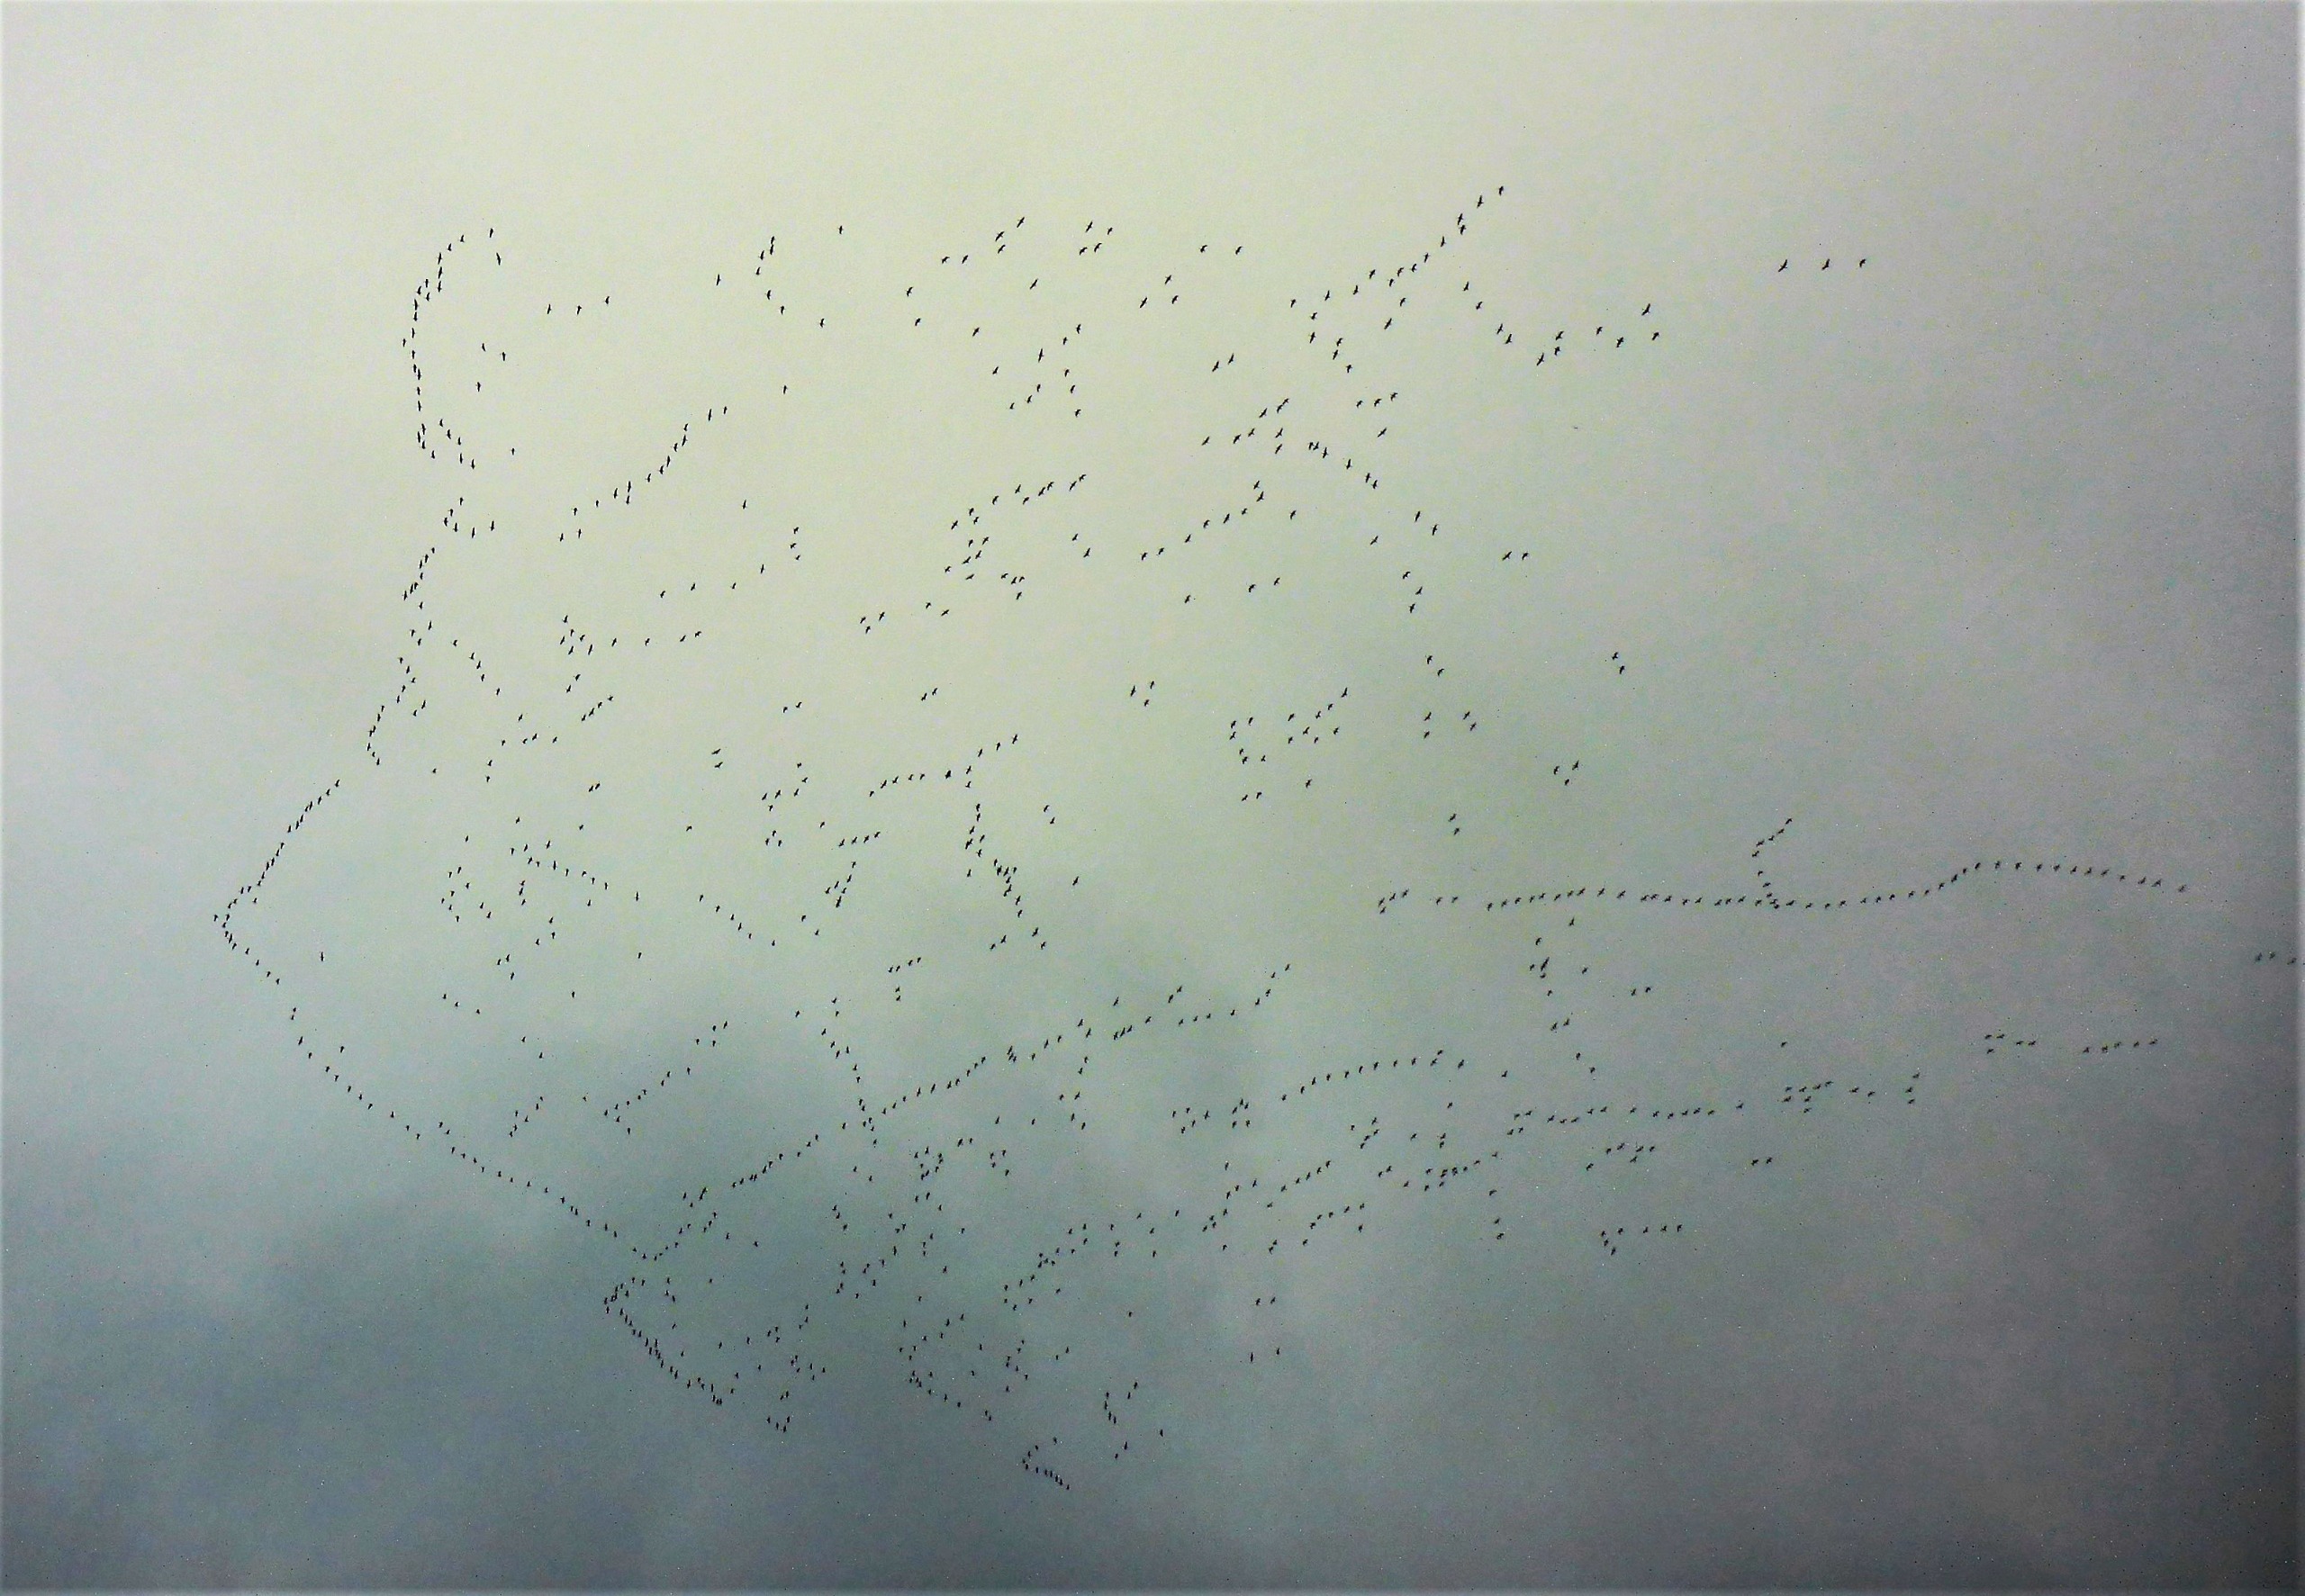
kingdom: Animalia
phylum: Chordata
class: Aves
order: Anseriformes
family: Anatidae
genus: Branta
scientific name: Branta leucopsis
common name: Bramgås
